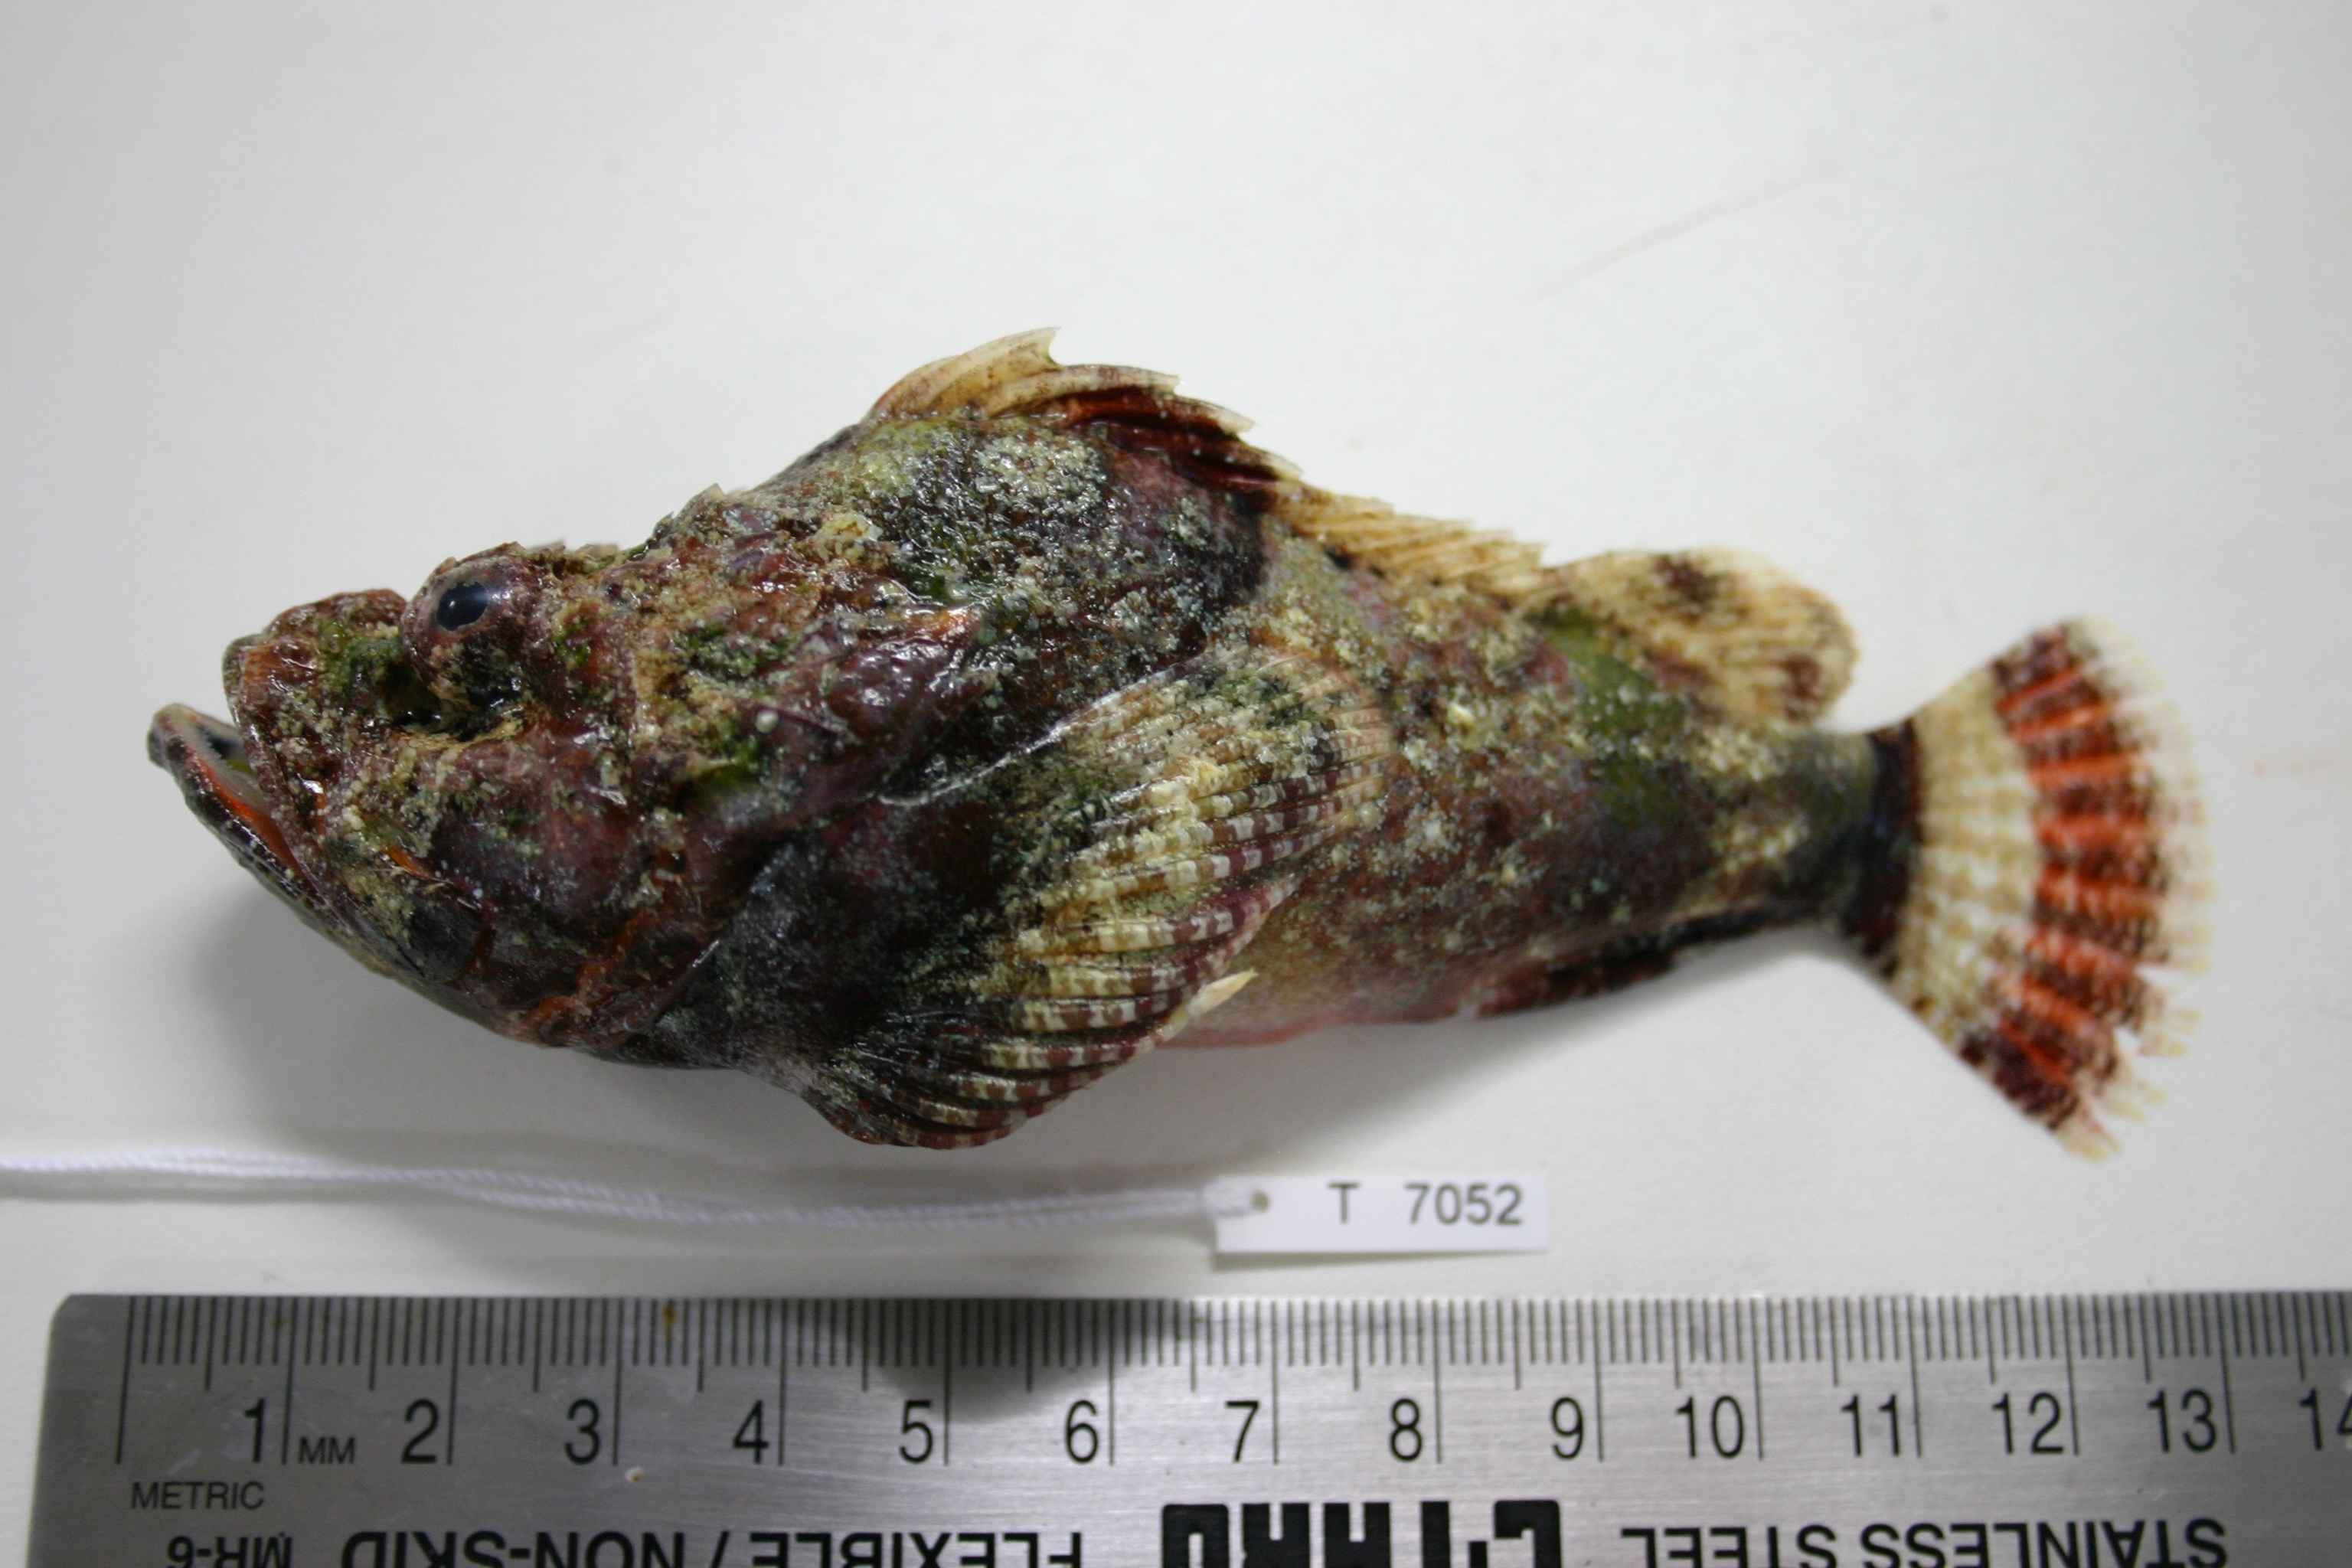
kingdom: Animalia
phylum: Chordata
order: Scorpaeniformes
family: Scorpaenidae
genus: Scorpaenopsis
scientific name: Scorpaenopsis diabolus
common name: False stonefish
